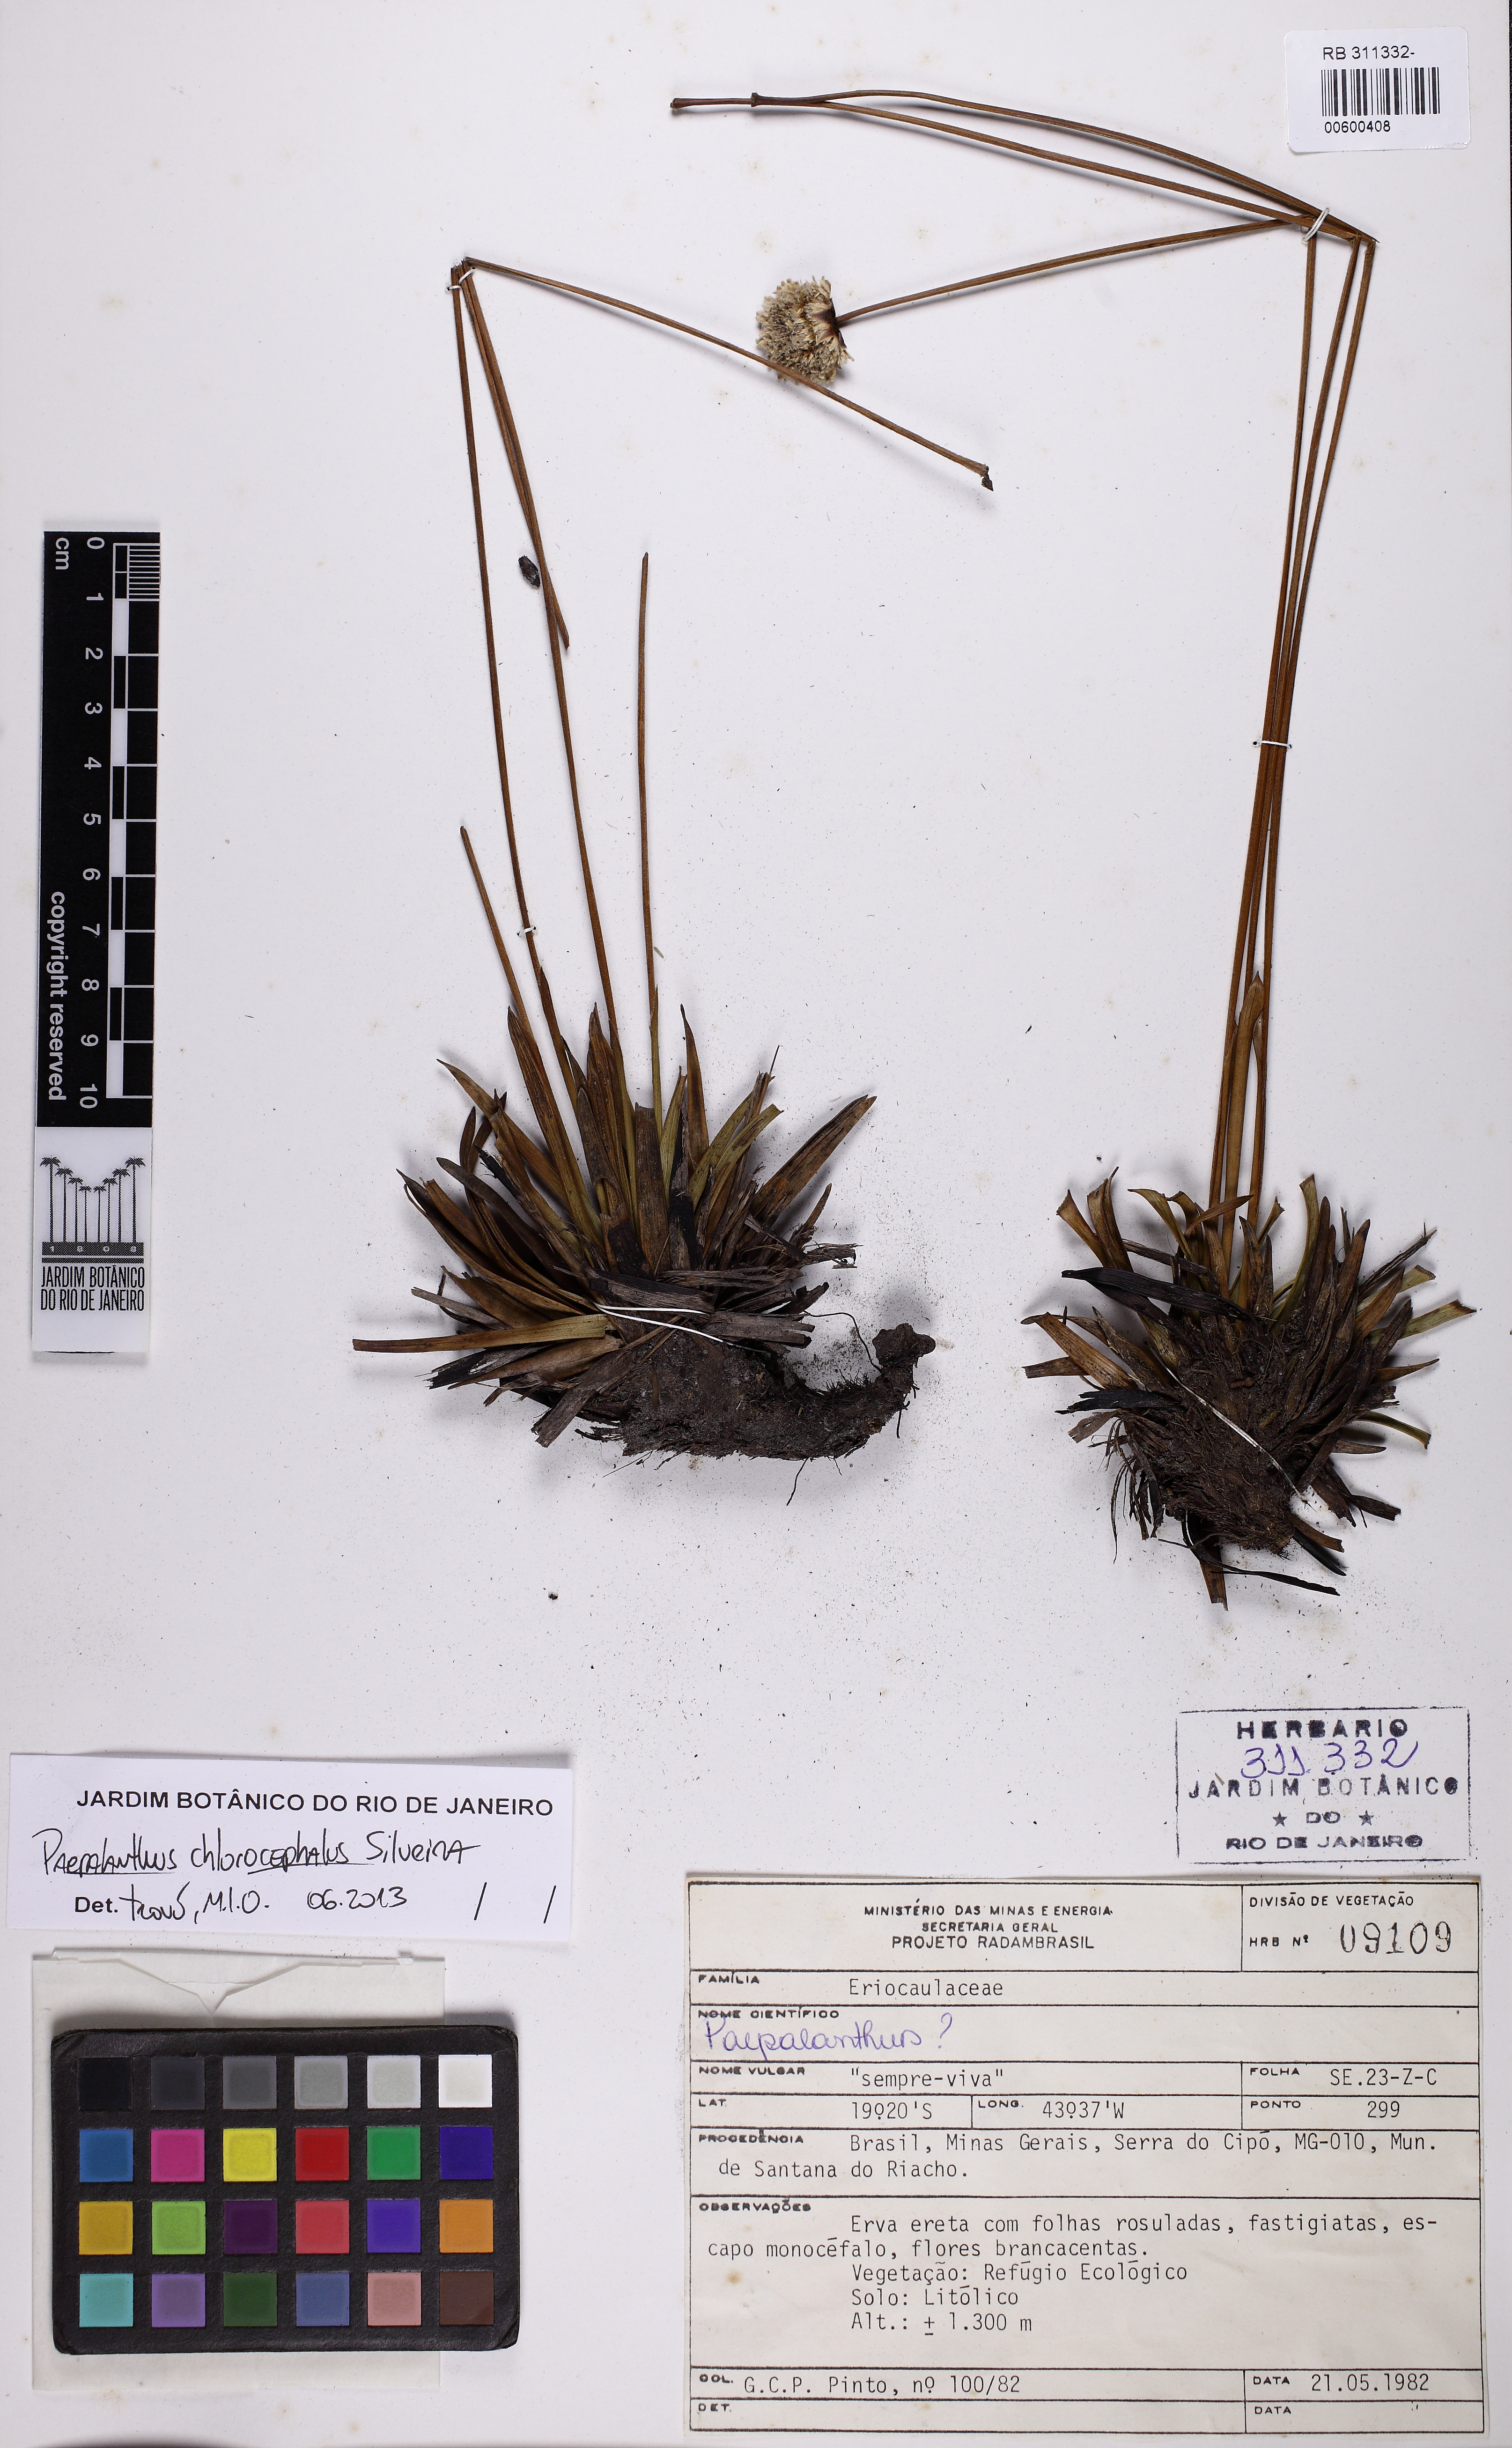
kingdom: Plantae
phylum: Tracheophyta
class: Liliopsida
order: Poales
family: Eriocaulaceae
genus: Paepalanthus
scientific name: Paepalanthus chlorocephalus
